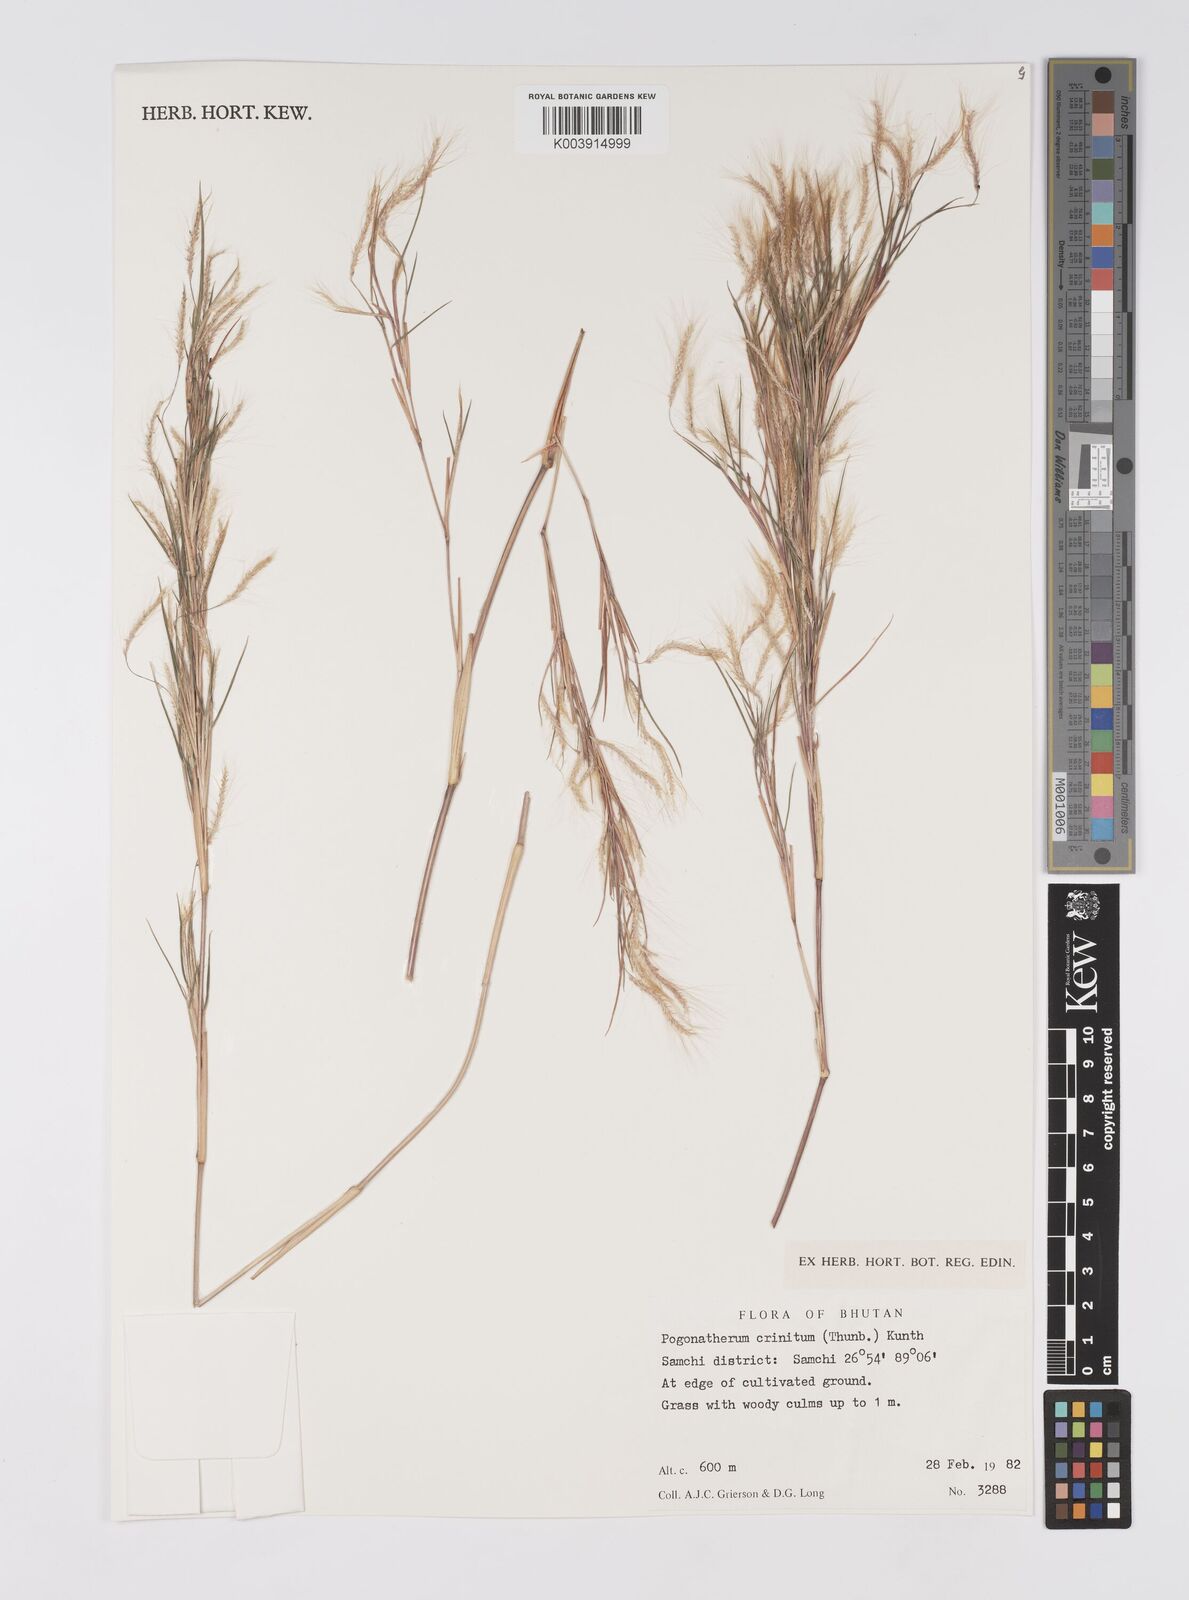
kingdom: Plantae
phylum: Tracheophyta
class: Liliopsida
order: Poales
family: Poaceae
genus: Pogonatherum
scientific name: Pogonatherum crinitum
